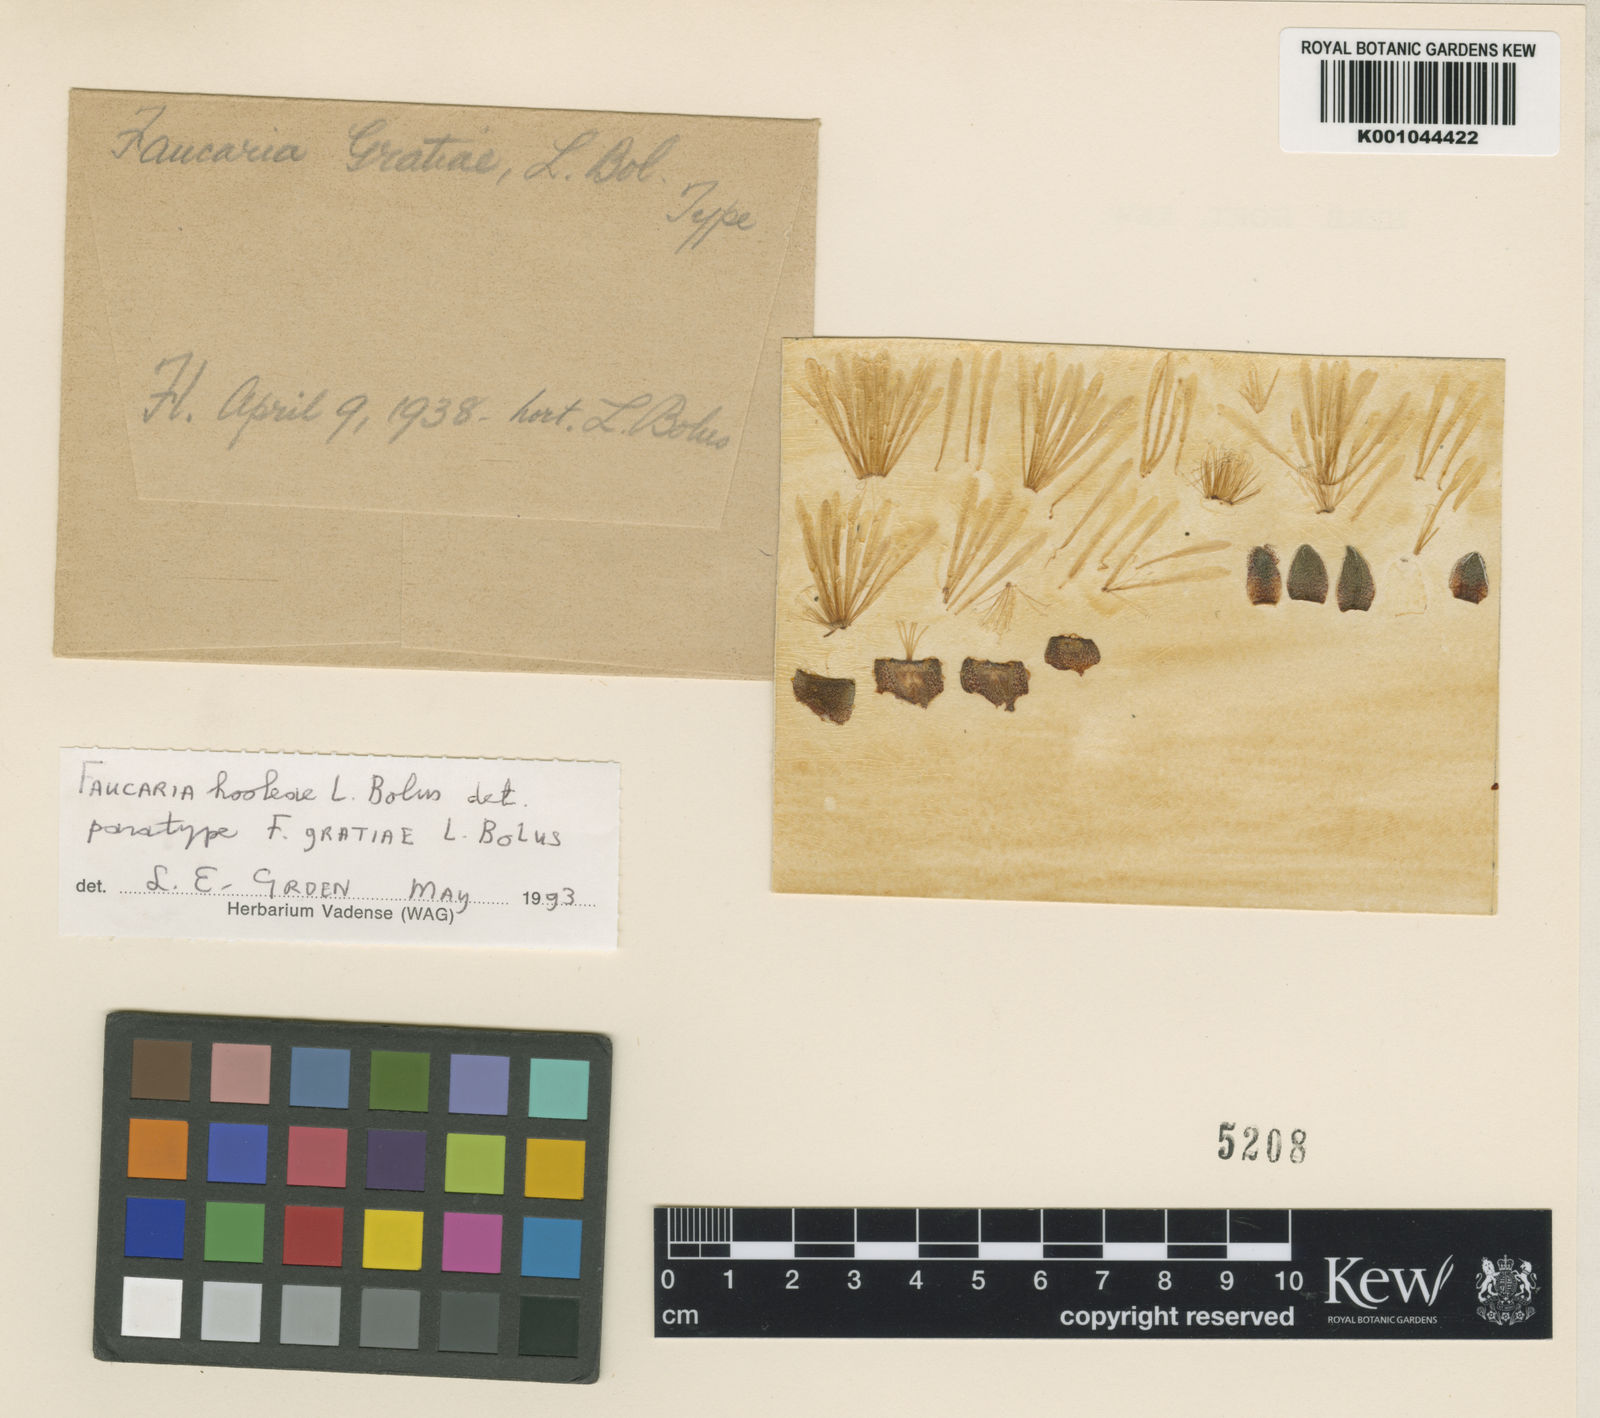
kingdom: Plantae
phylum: Tracheophyta
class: Magnoliopsida
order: Caryophyllales
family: Aizoaceae
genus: Faucaria
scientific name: Faucaria gratiae
